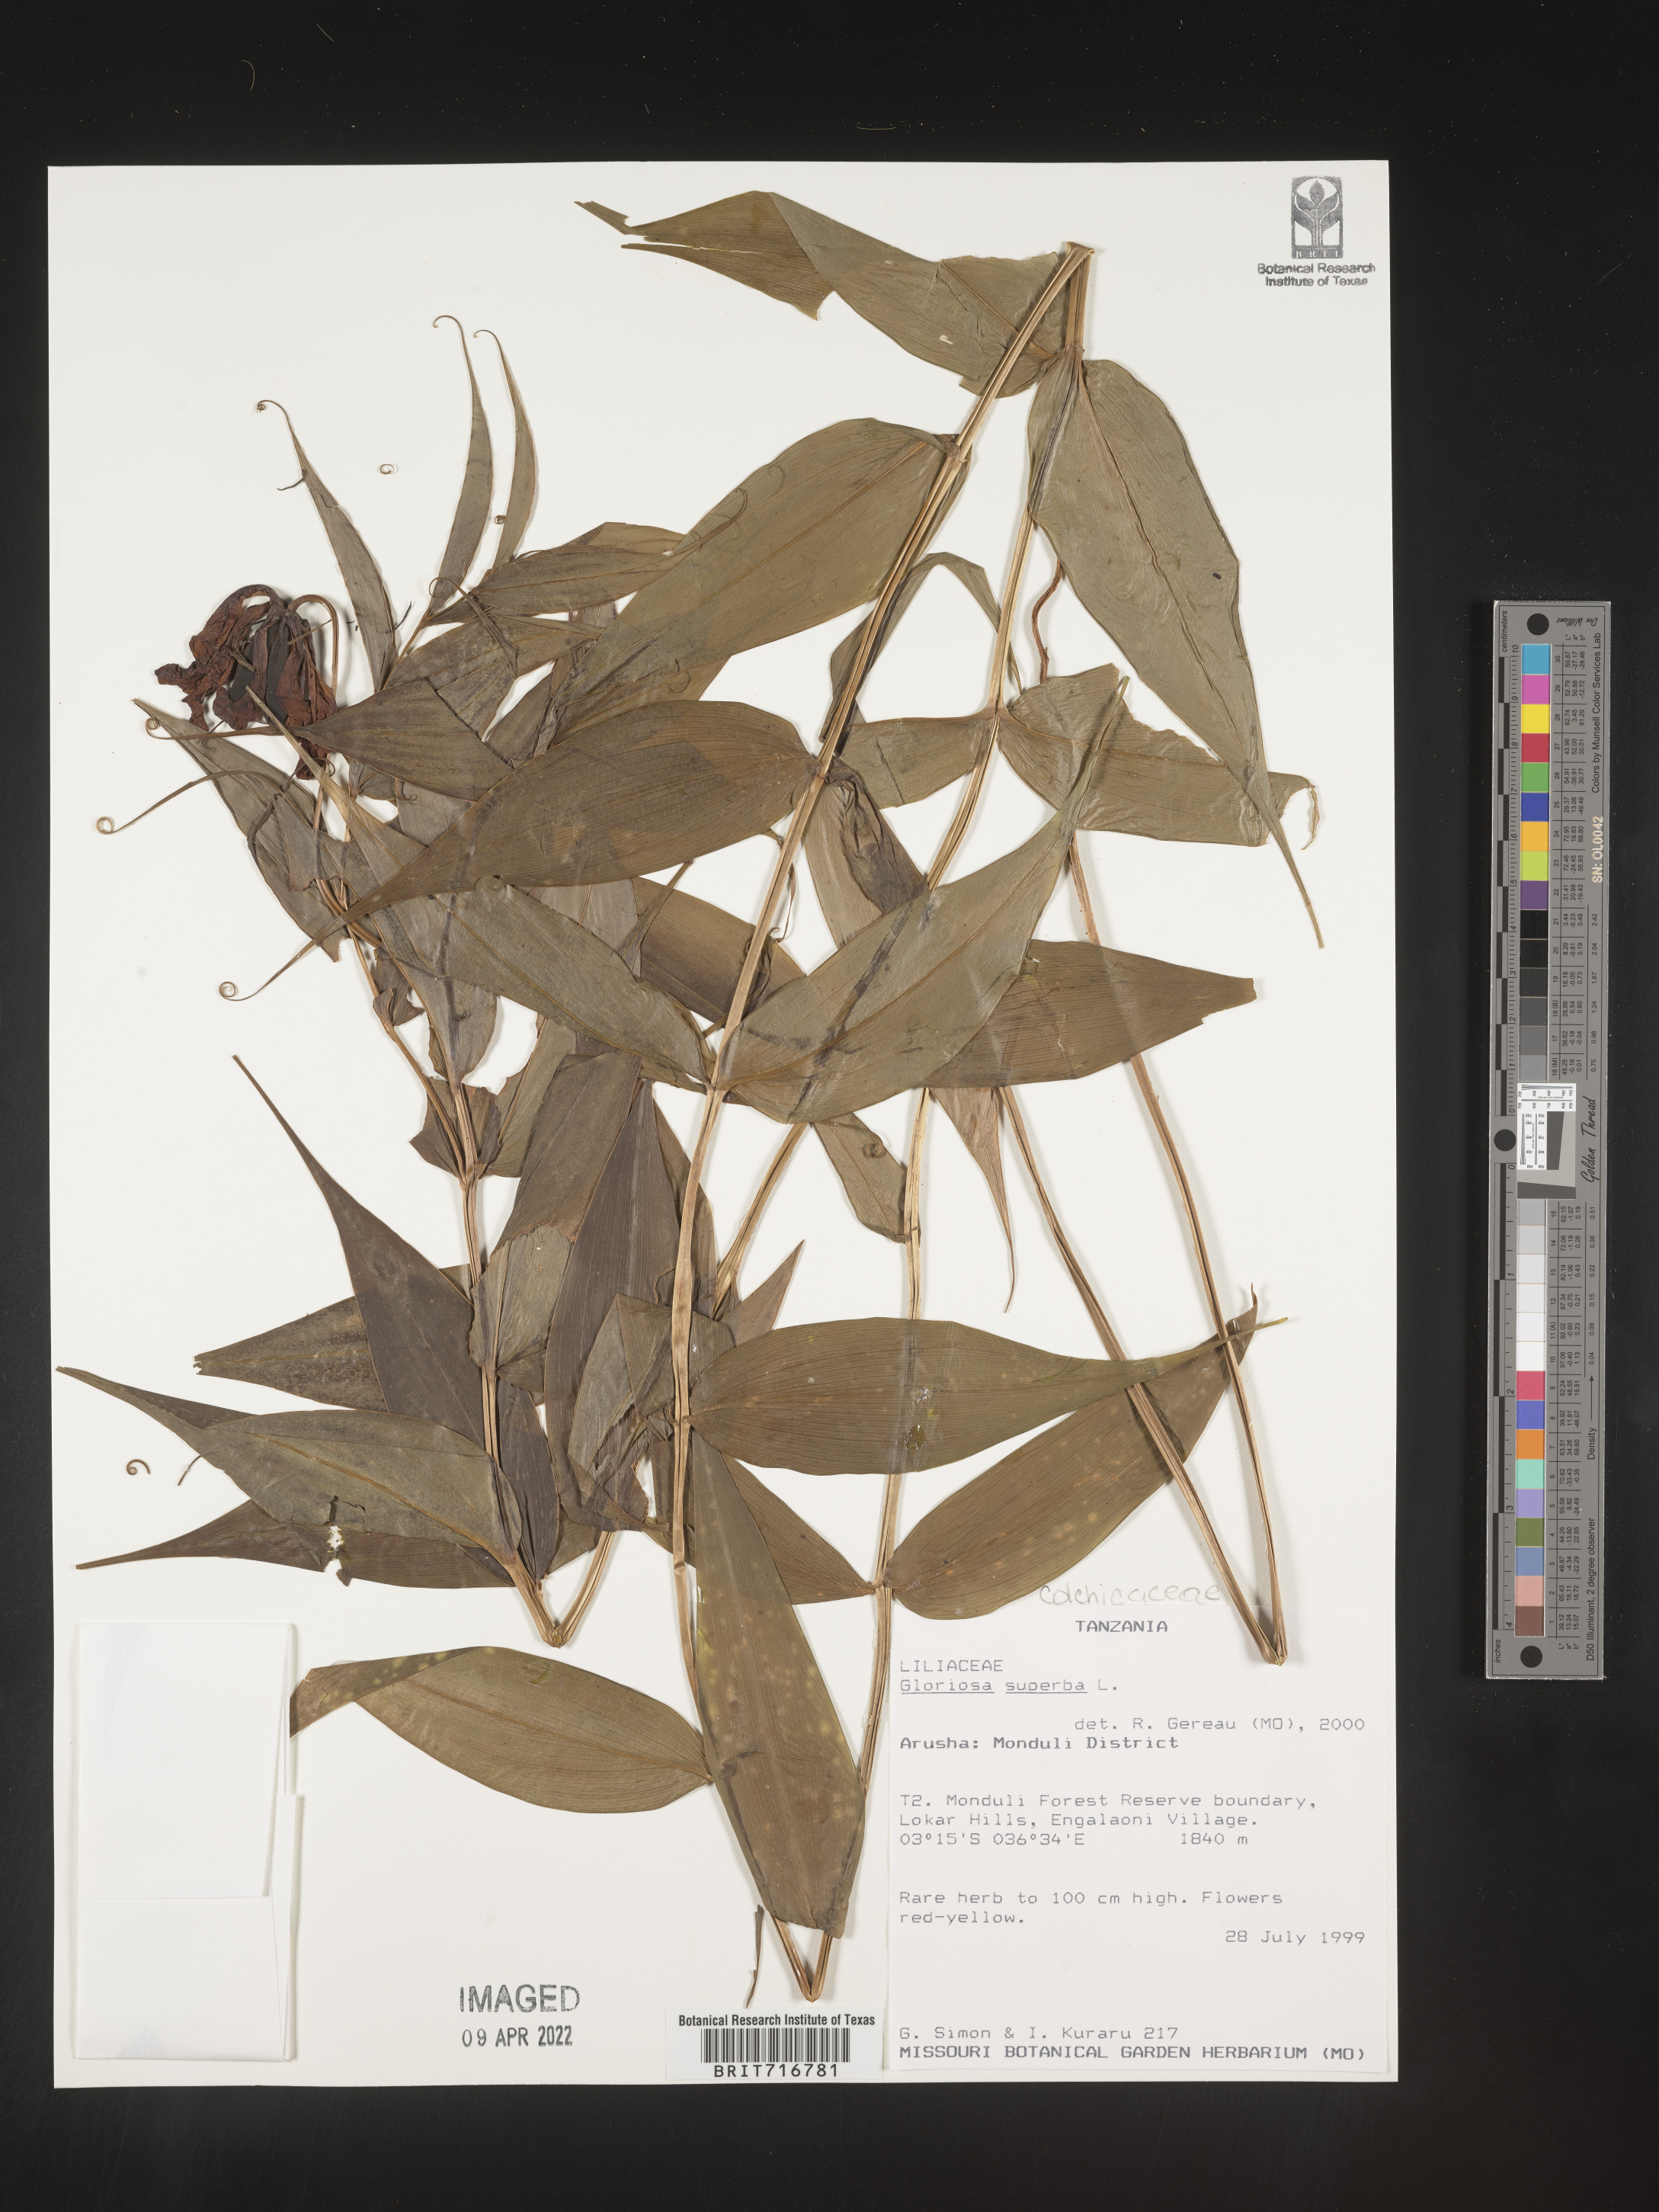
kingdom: Plantae
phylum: Tracheophyta
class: Liliopsida
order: Liliales
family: Colchicaceae
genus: Gloriosa
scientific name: Gloriosa
